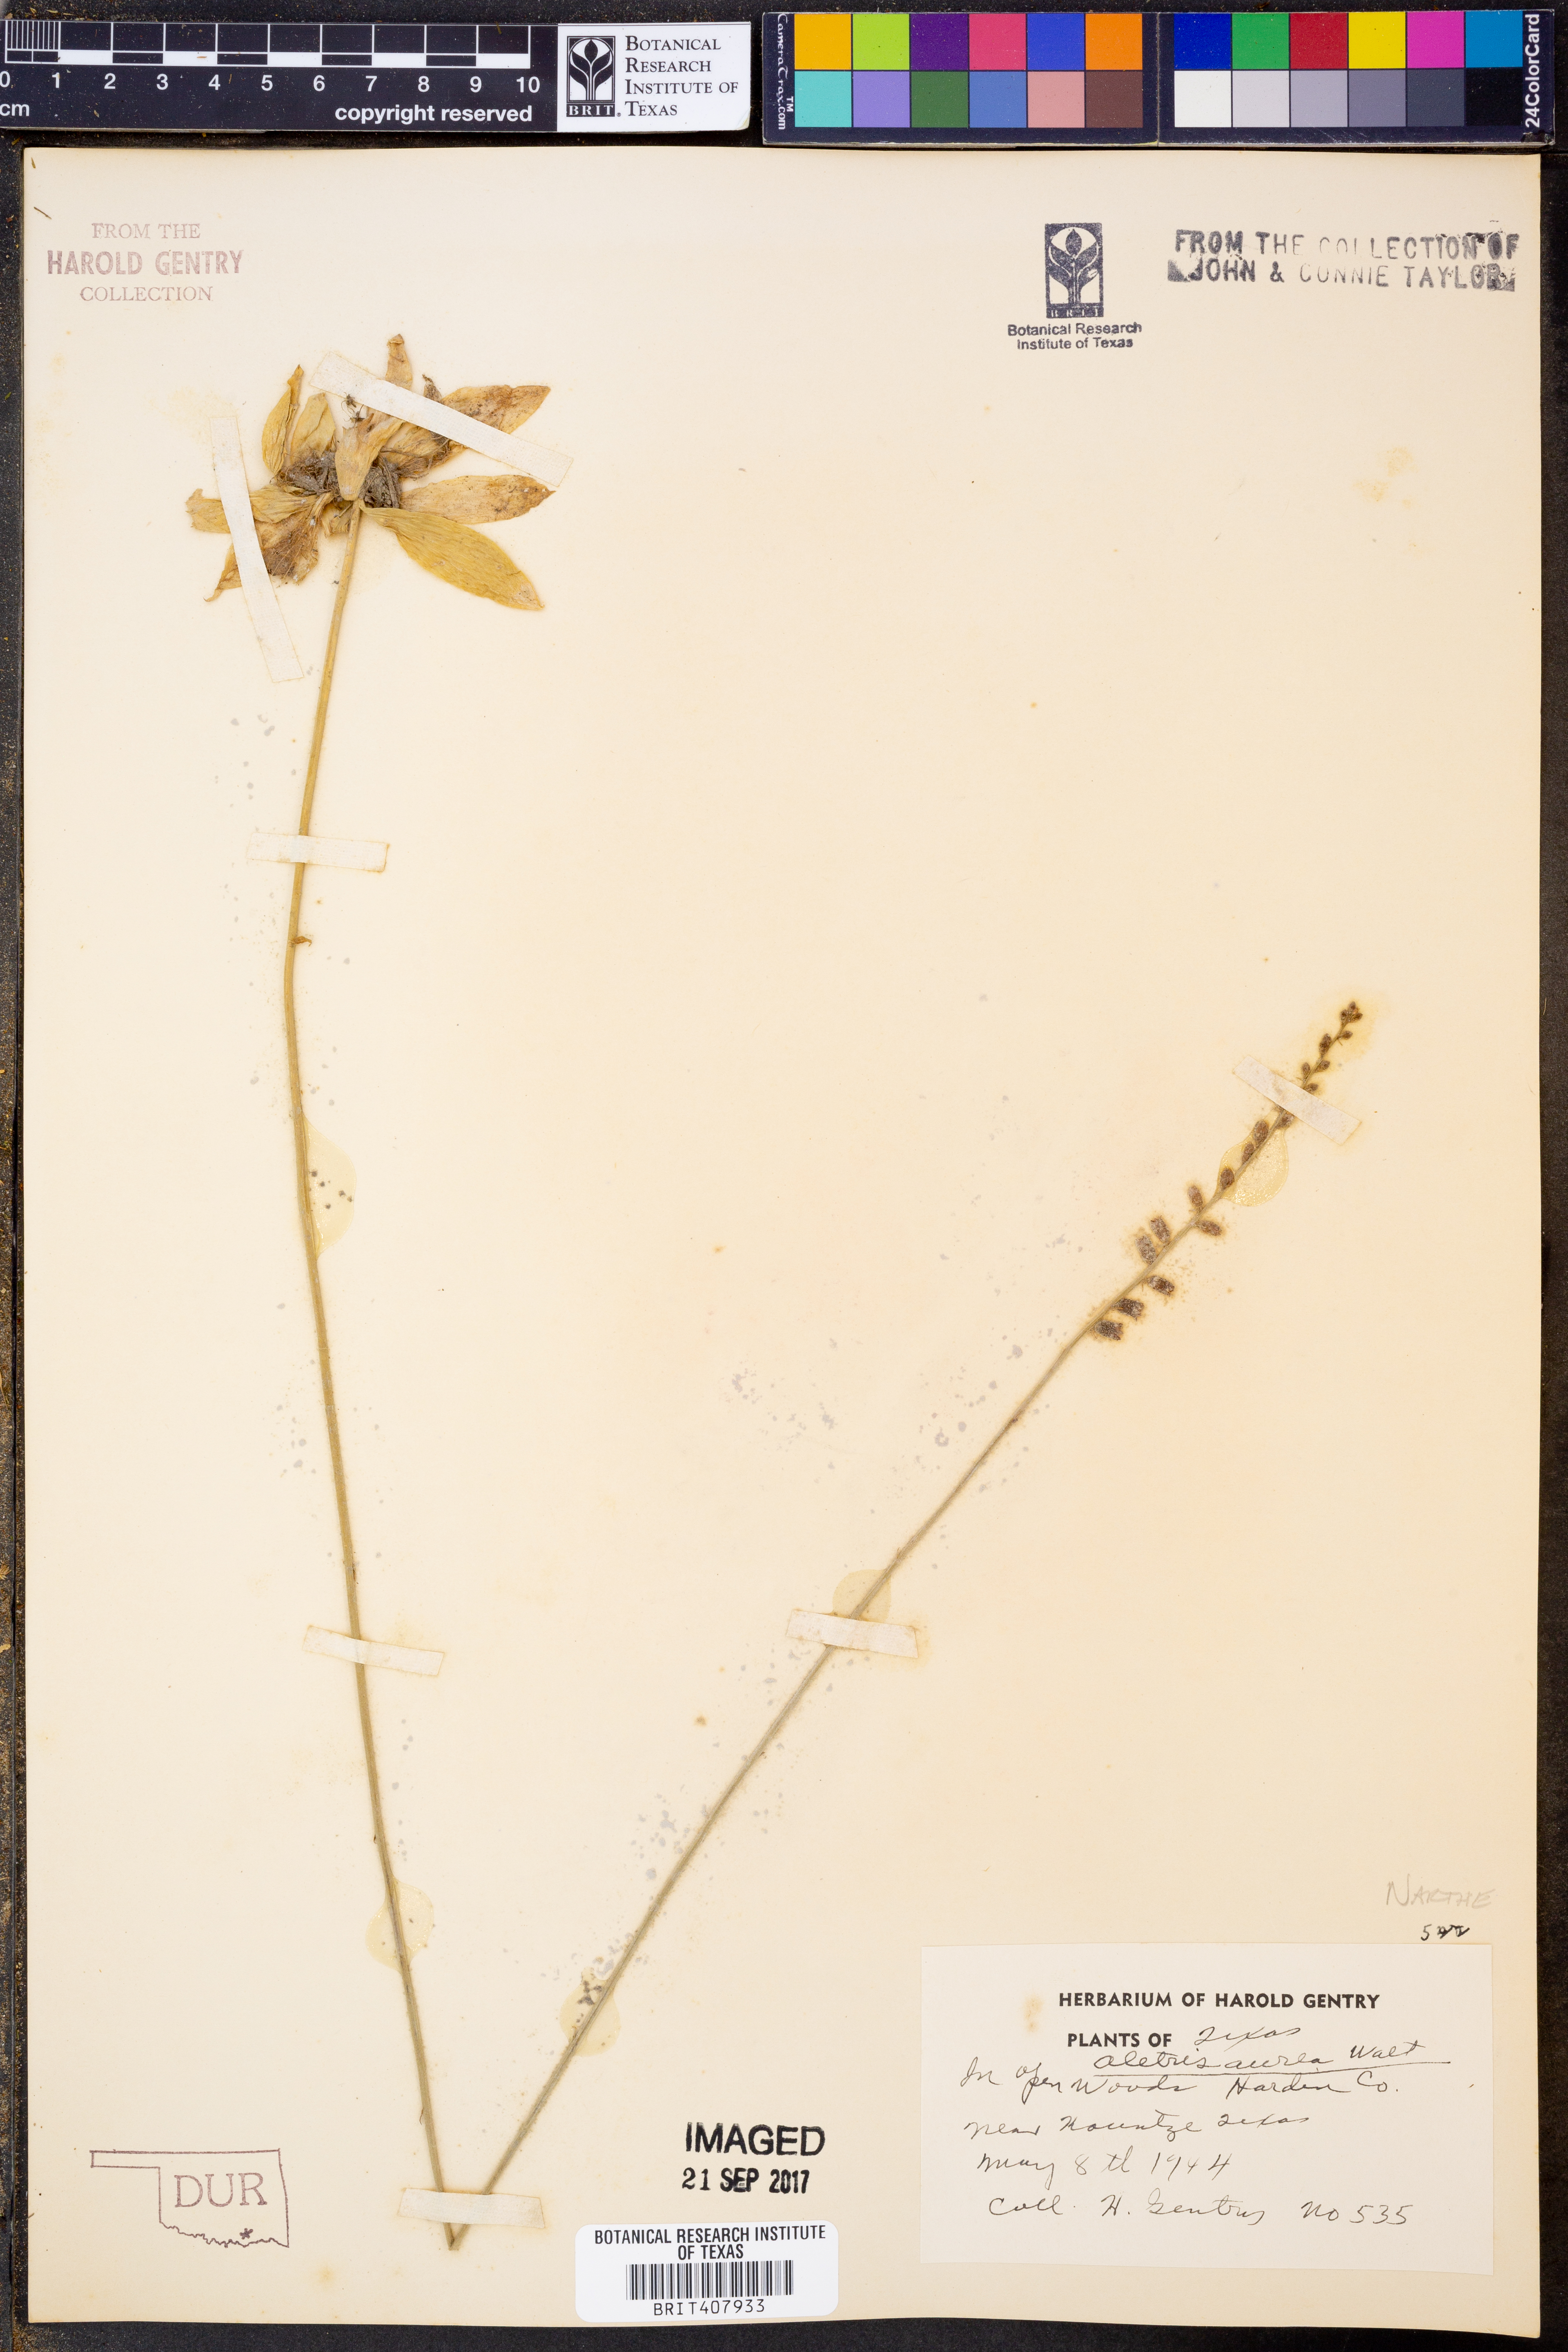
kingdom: Plantae
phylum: Tracheophyta
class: Liliopsida
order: Dioscoreales
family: Nartheciaceae
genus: Aletris
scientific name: Aletris aurea
